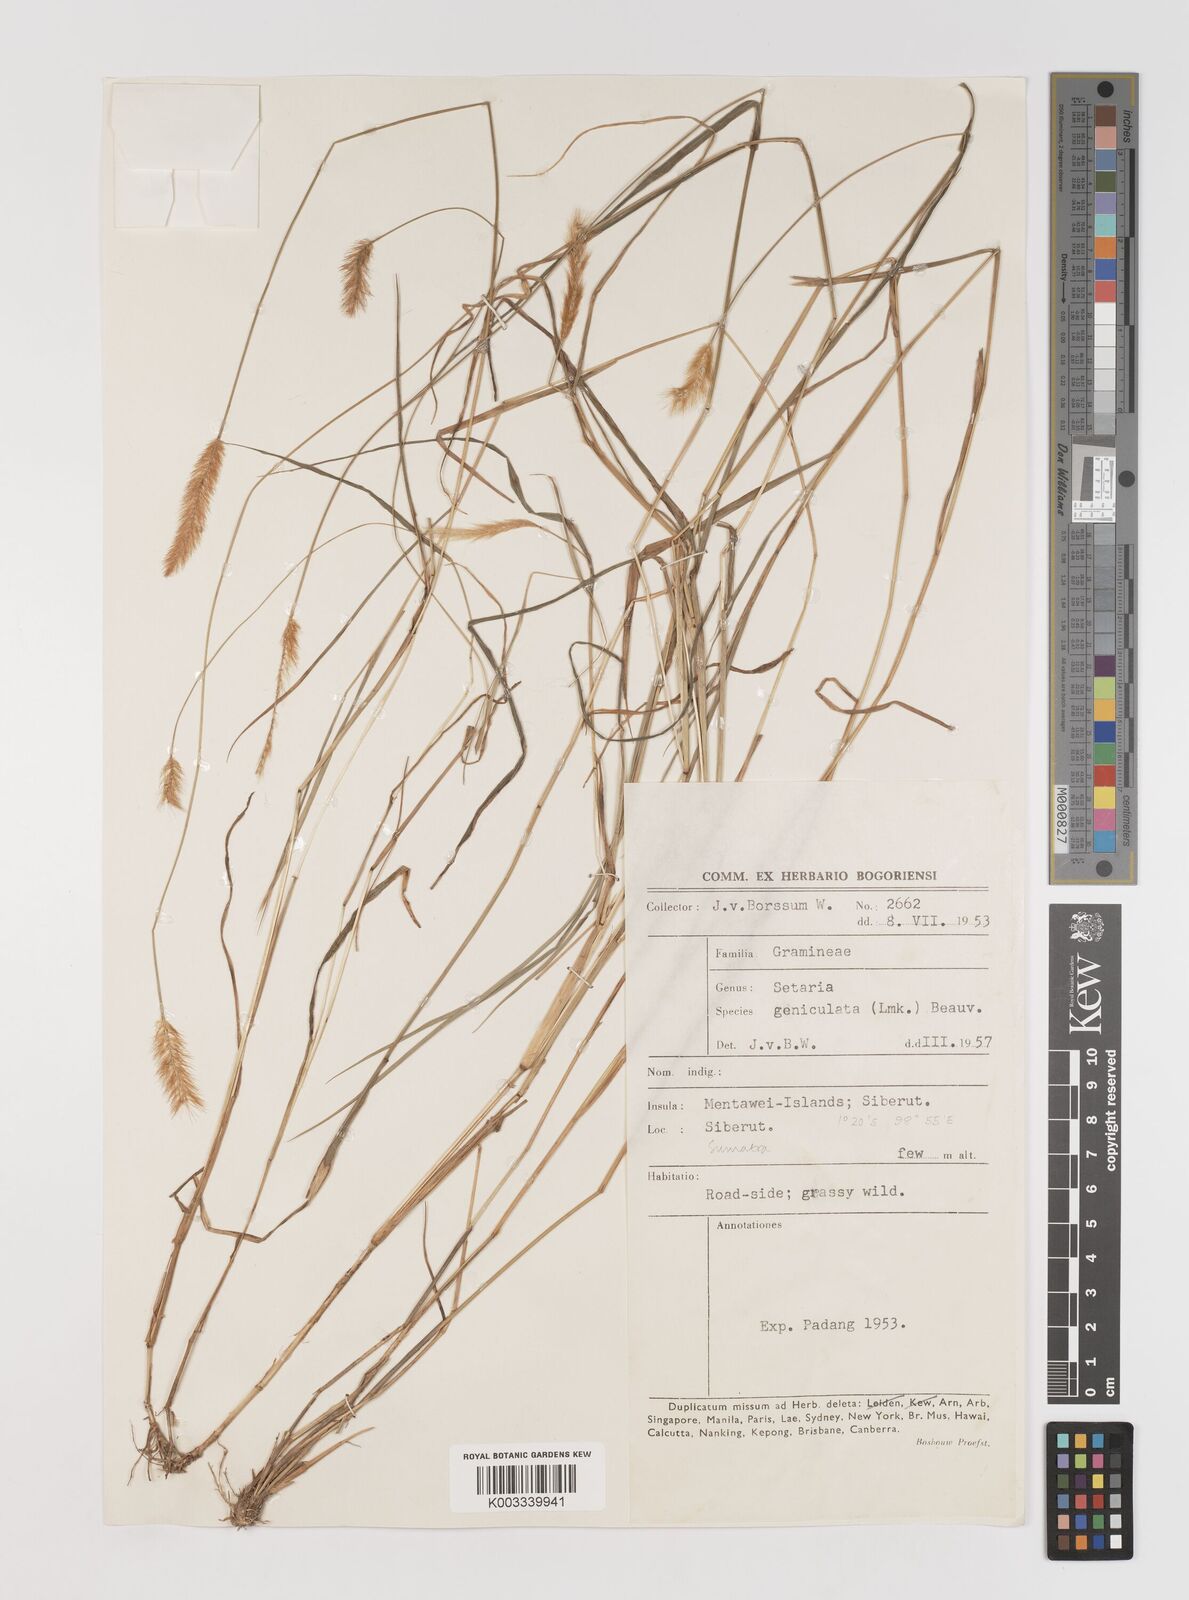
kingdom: Plantae
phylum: Tracheophyta
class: Liliopsida
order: Poales
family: Poaceae
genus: Setaria
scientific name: Setaria parviflora
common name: Knotroot bristle-grass
